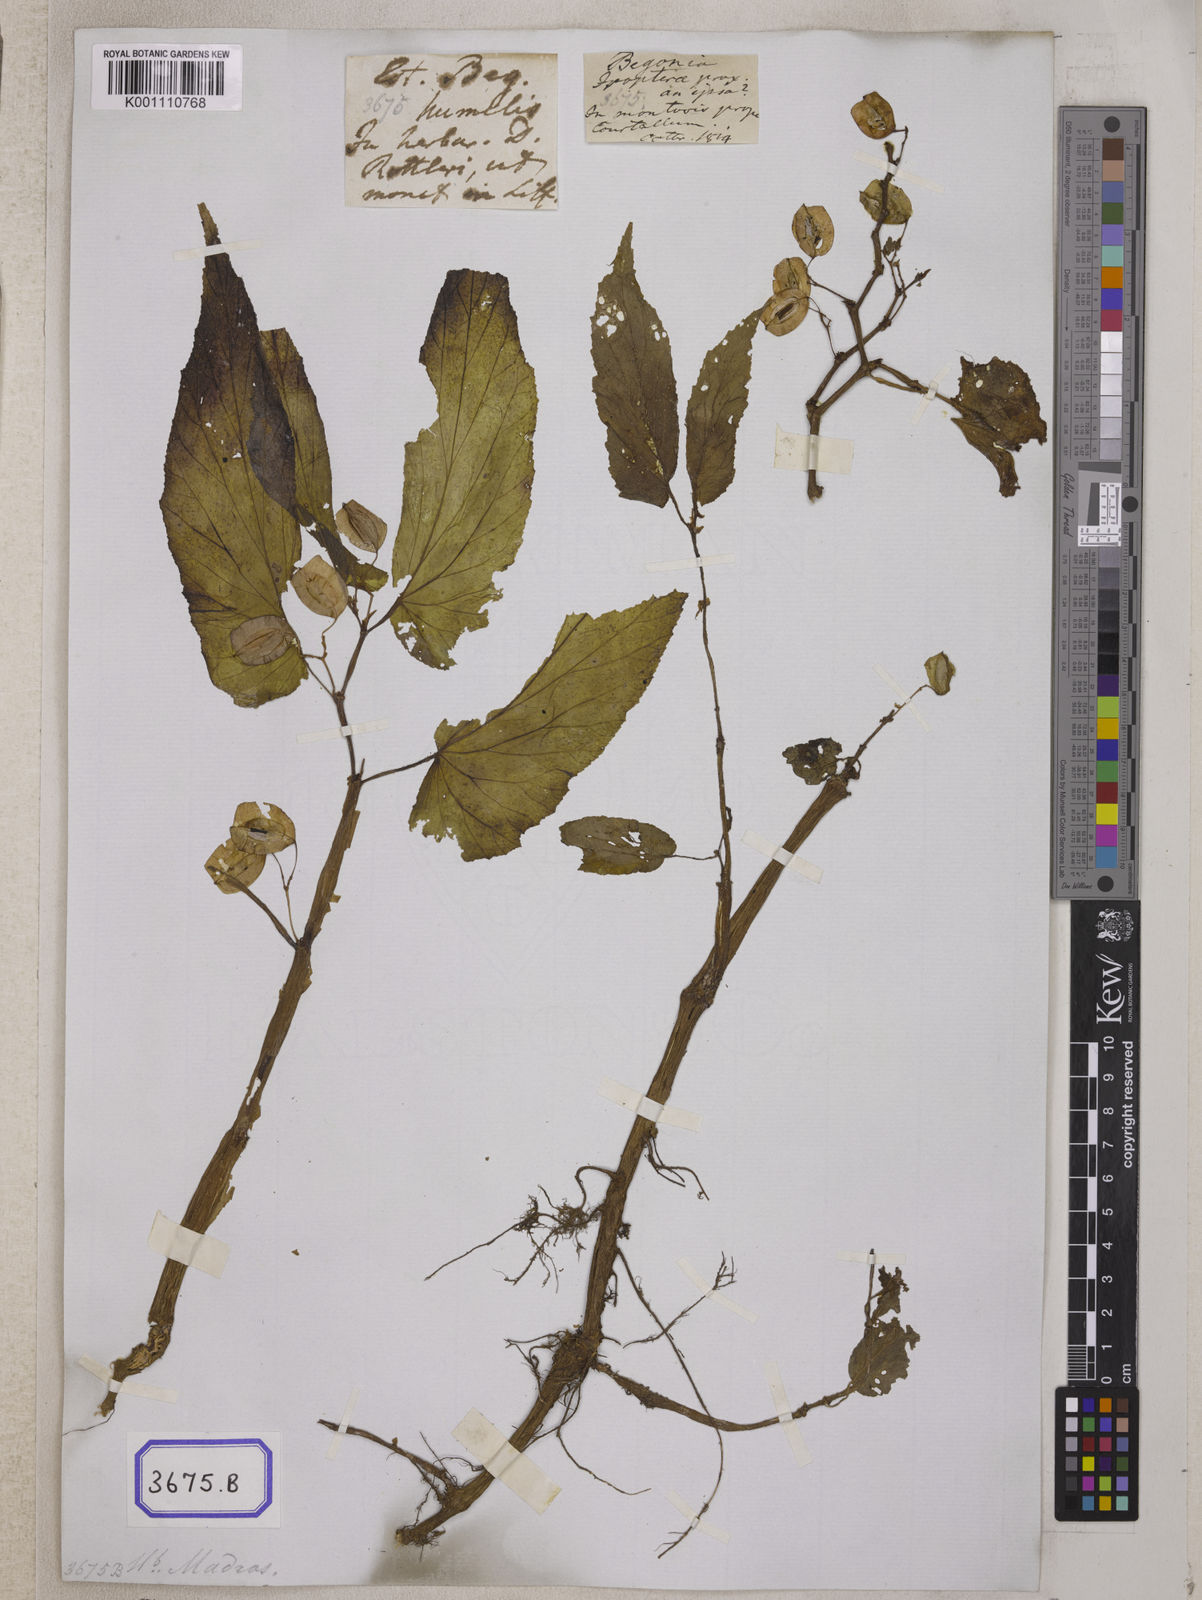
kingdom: Plantae
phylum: Tracheophyta
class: Magnoliopsida
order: Cucurbitales
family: Begoniaceae
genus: Begonia
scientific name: Begonia
